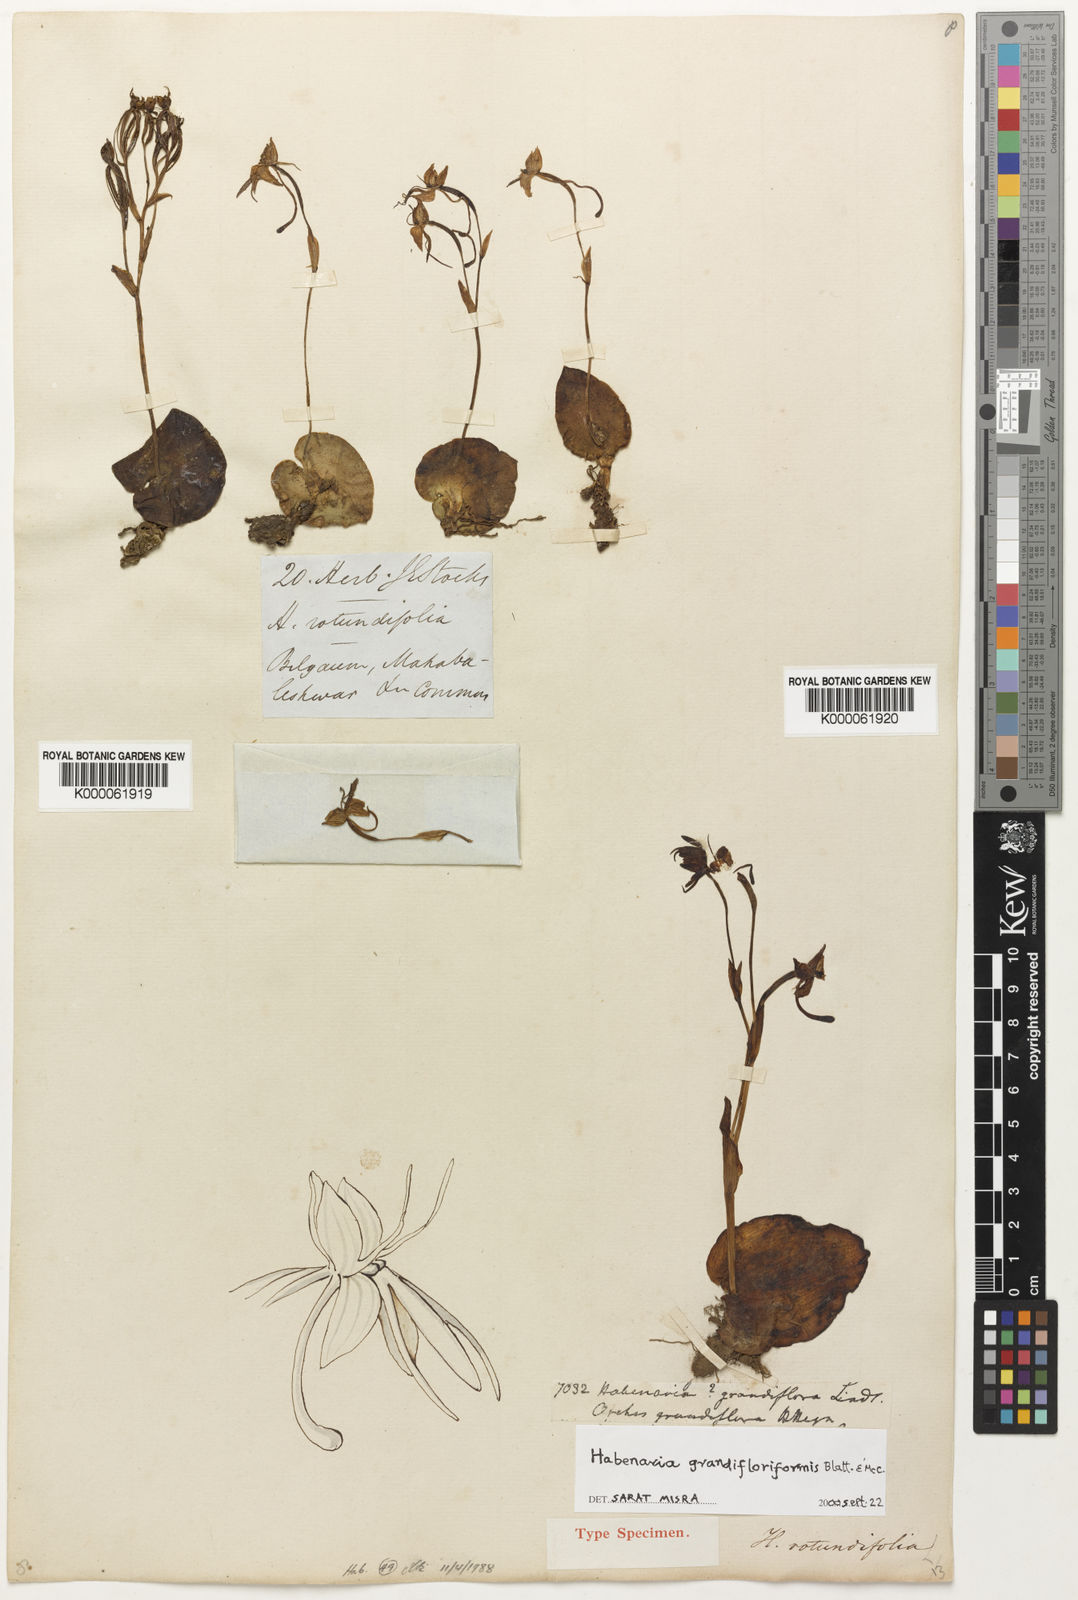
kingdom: Plantae
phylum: Tracheophyta
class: Liliopsida
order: Asparagales
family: Orchidaceae
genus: Habenaria
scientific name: Habenaria grandifloriformis
